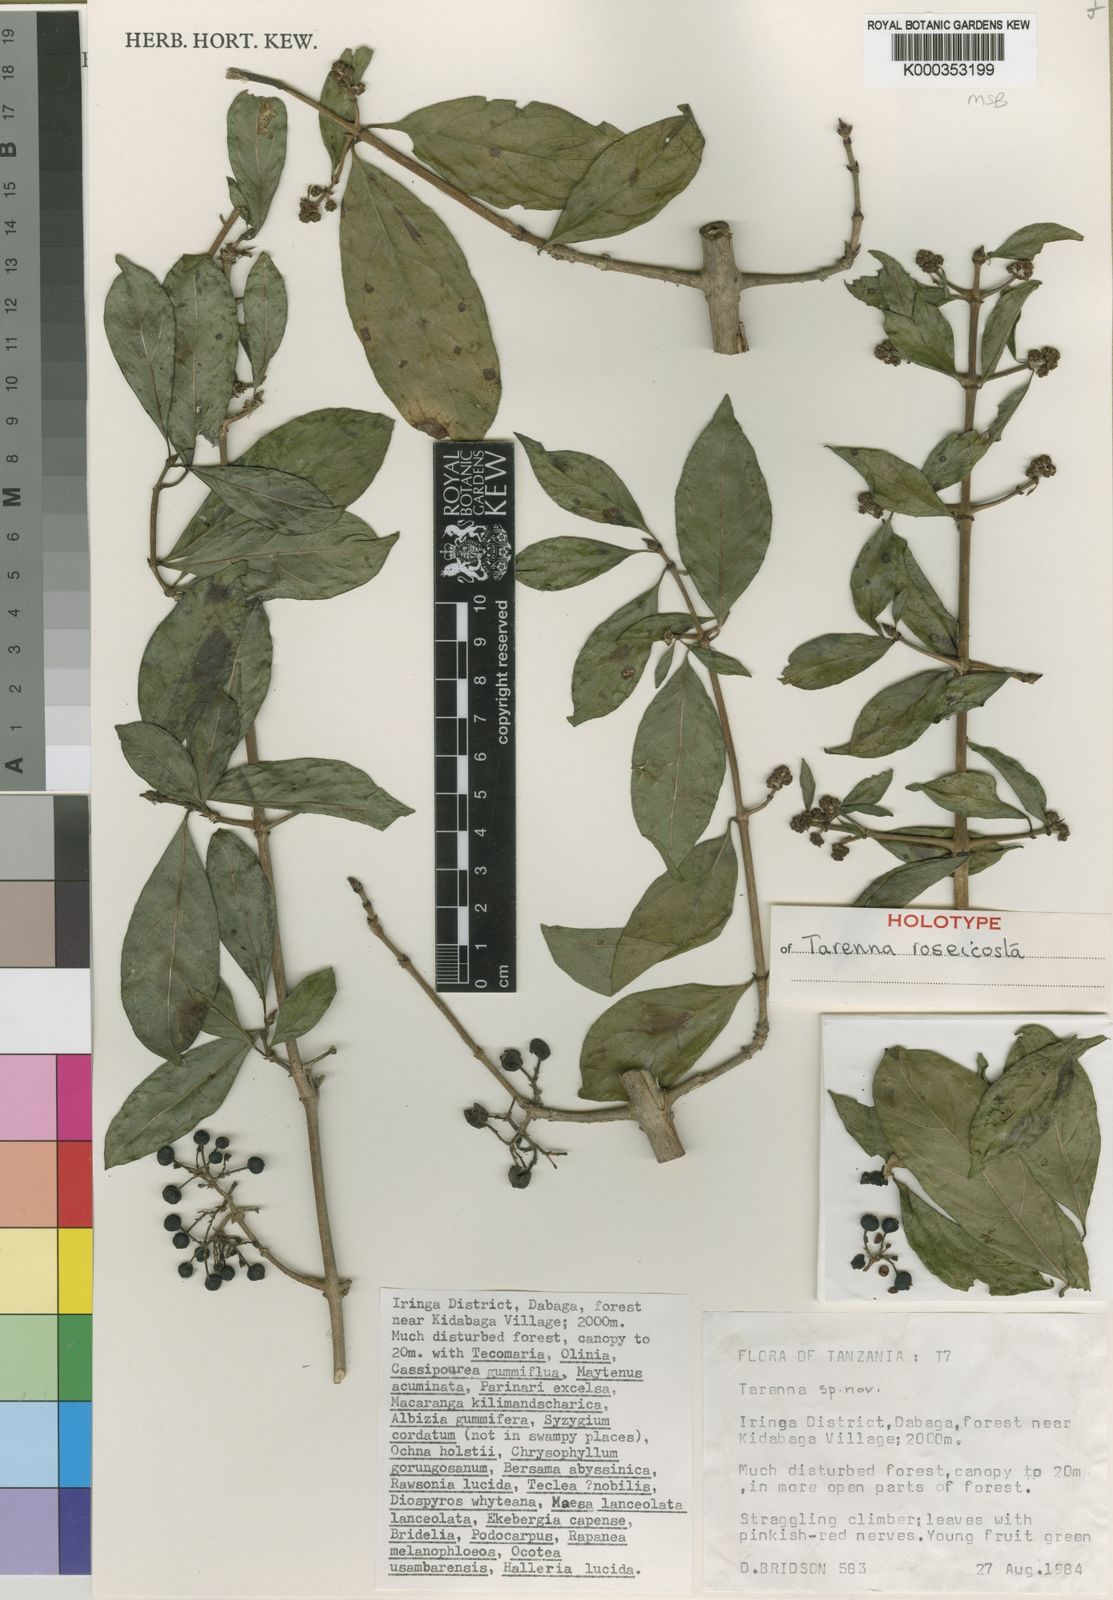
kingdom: Plantae
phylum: Tracheophyta
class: Magnoliopsida
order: Gentianales
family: Rubiaceae
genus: Tarenna
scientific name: Tarenna roseicosta
